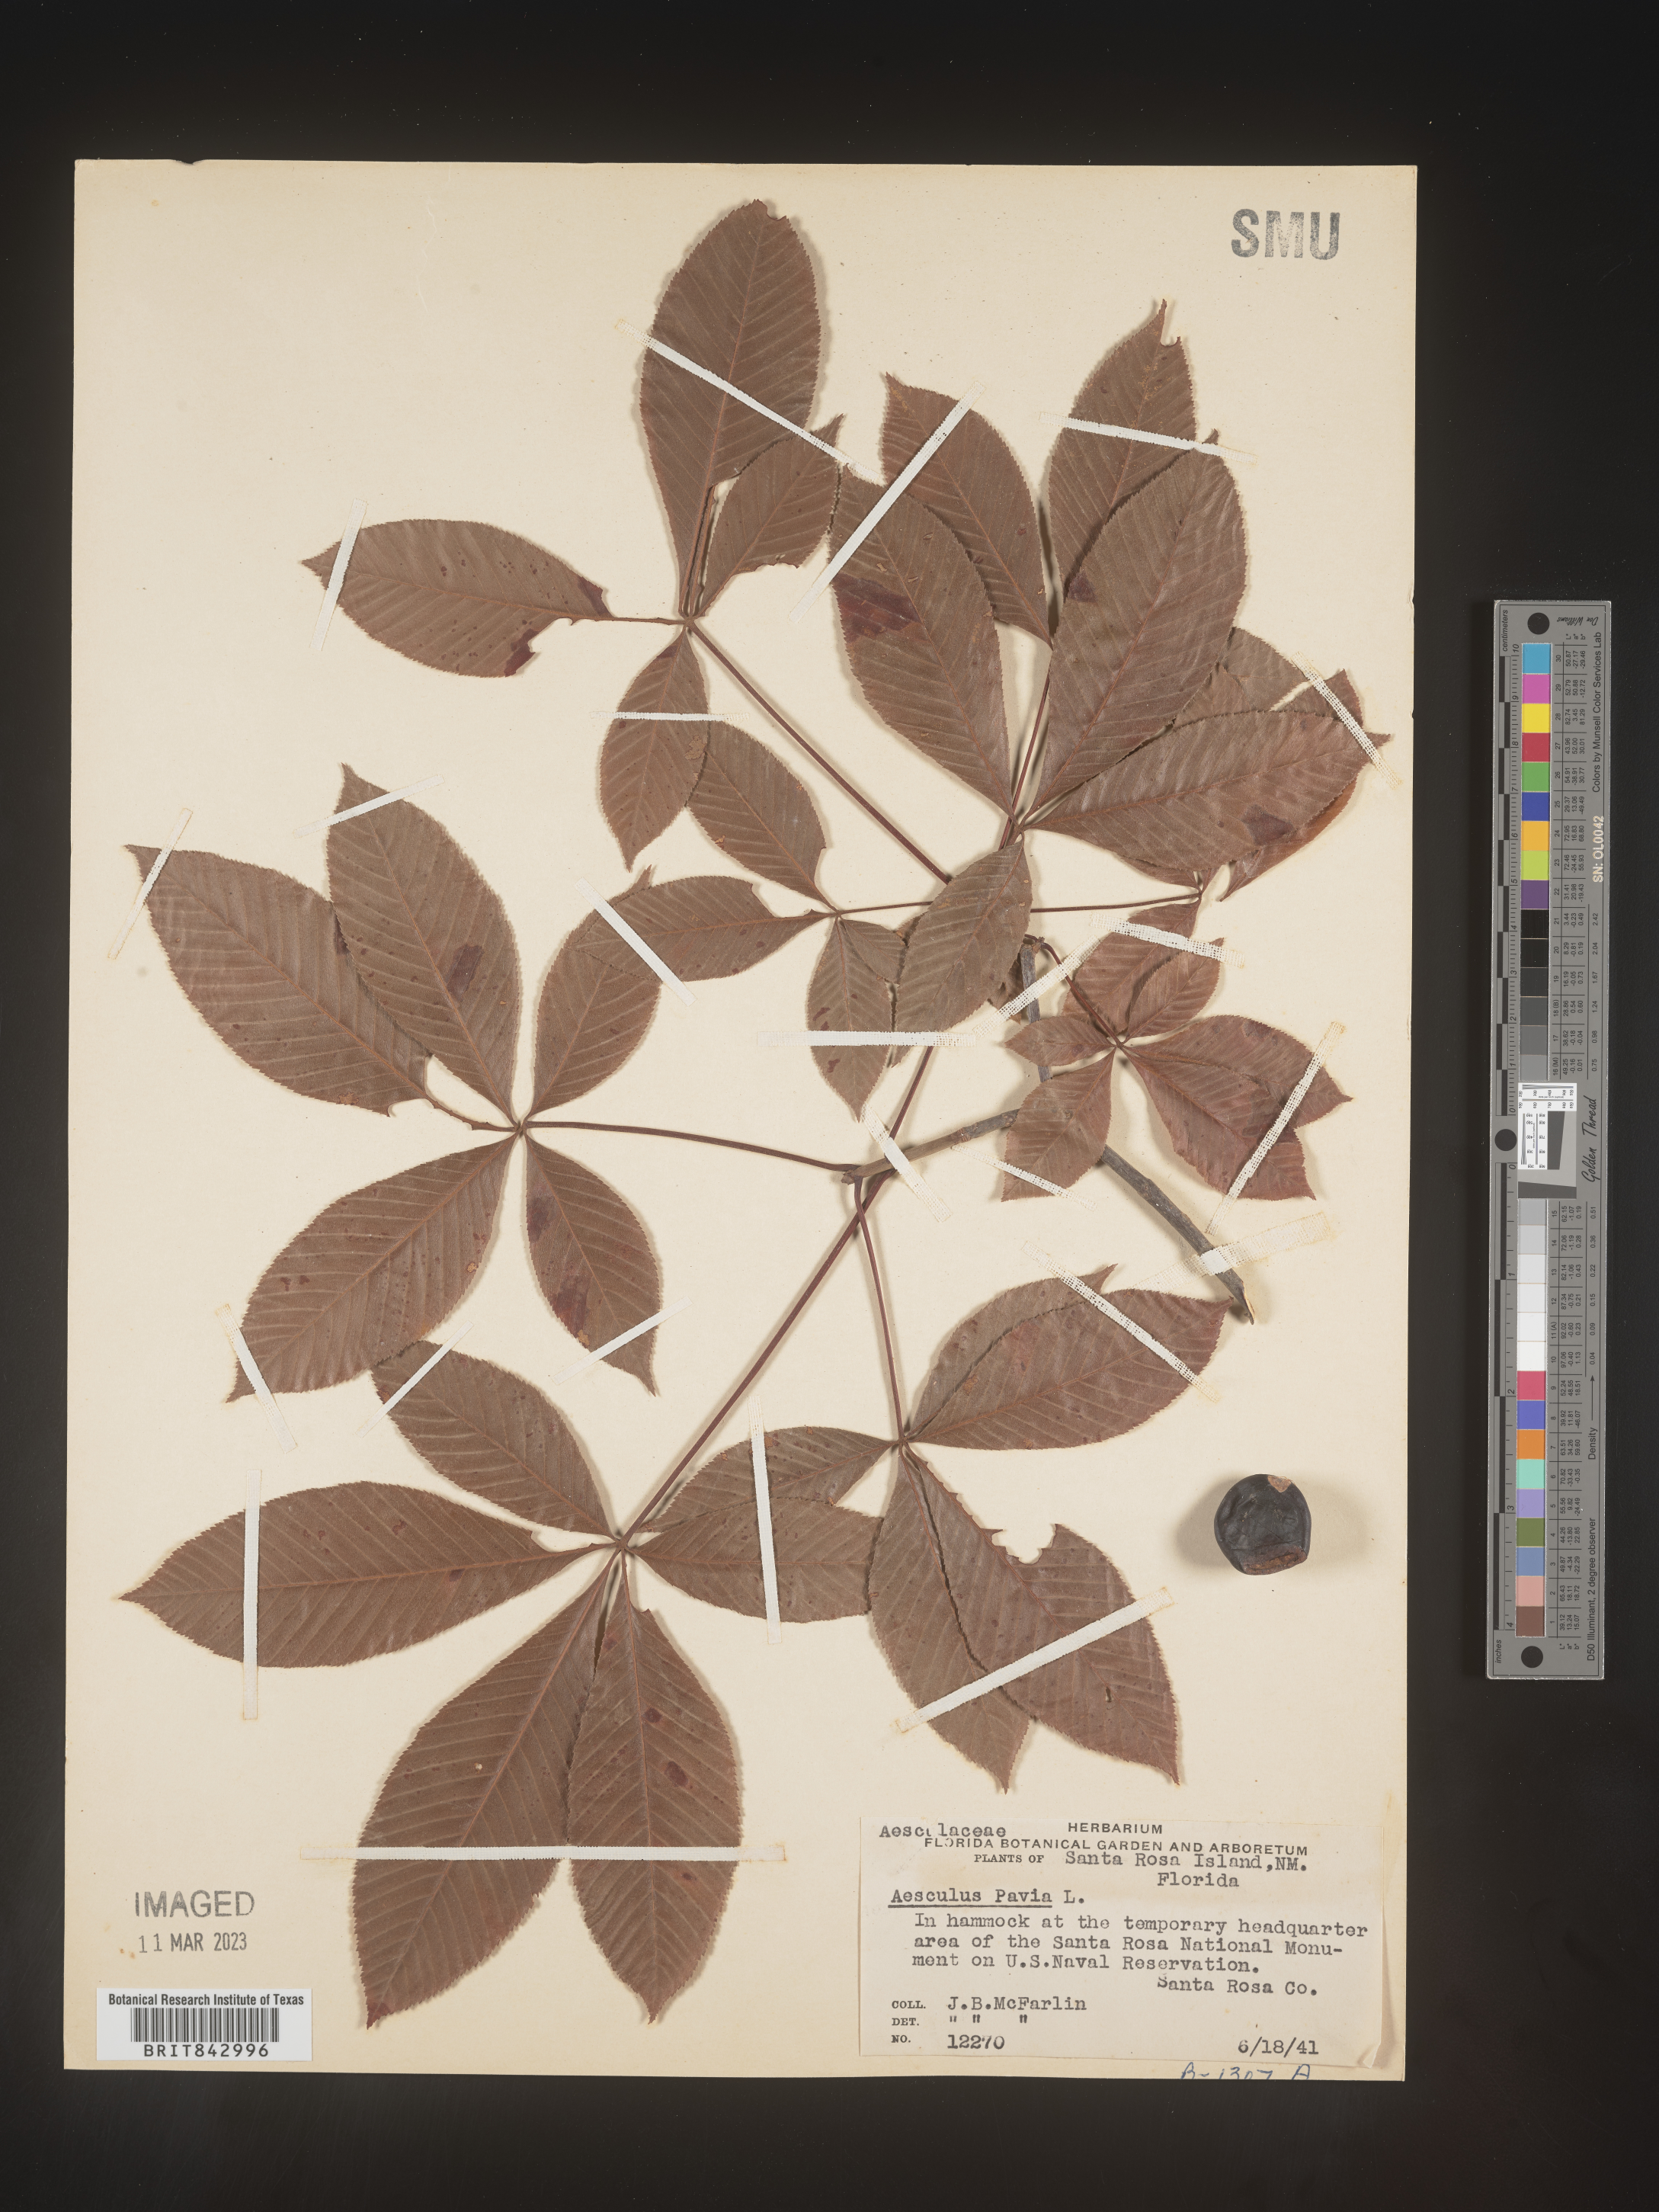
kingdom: Plantae
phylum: Tracheophyta
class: Magnoliopsida
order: Sapindales
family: Sapindaceae
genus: Aesculus
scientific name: Aesculus pavia
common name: Red buckeye
